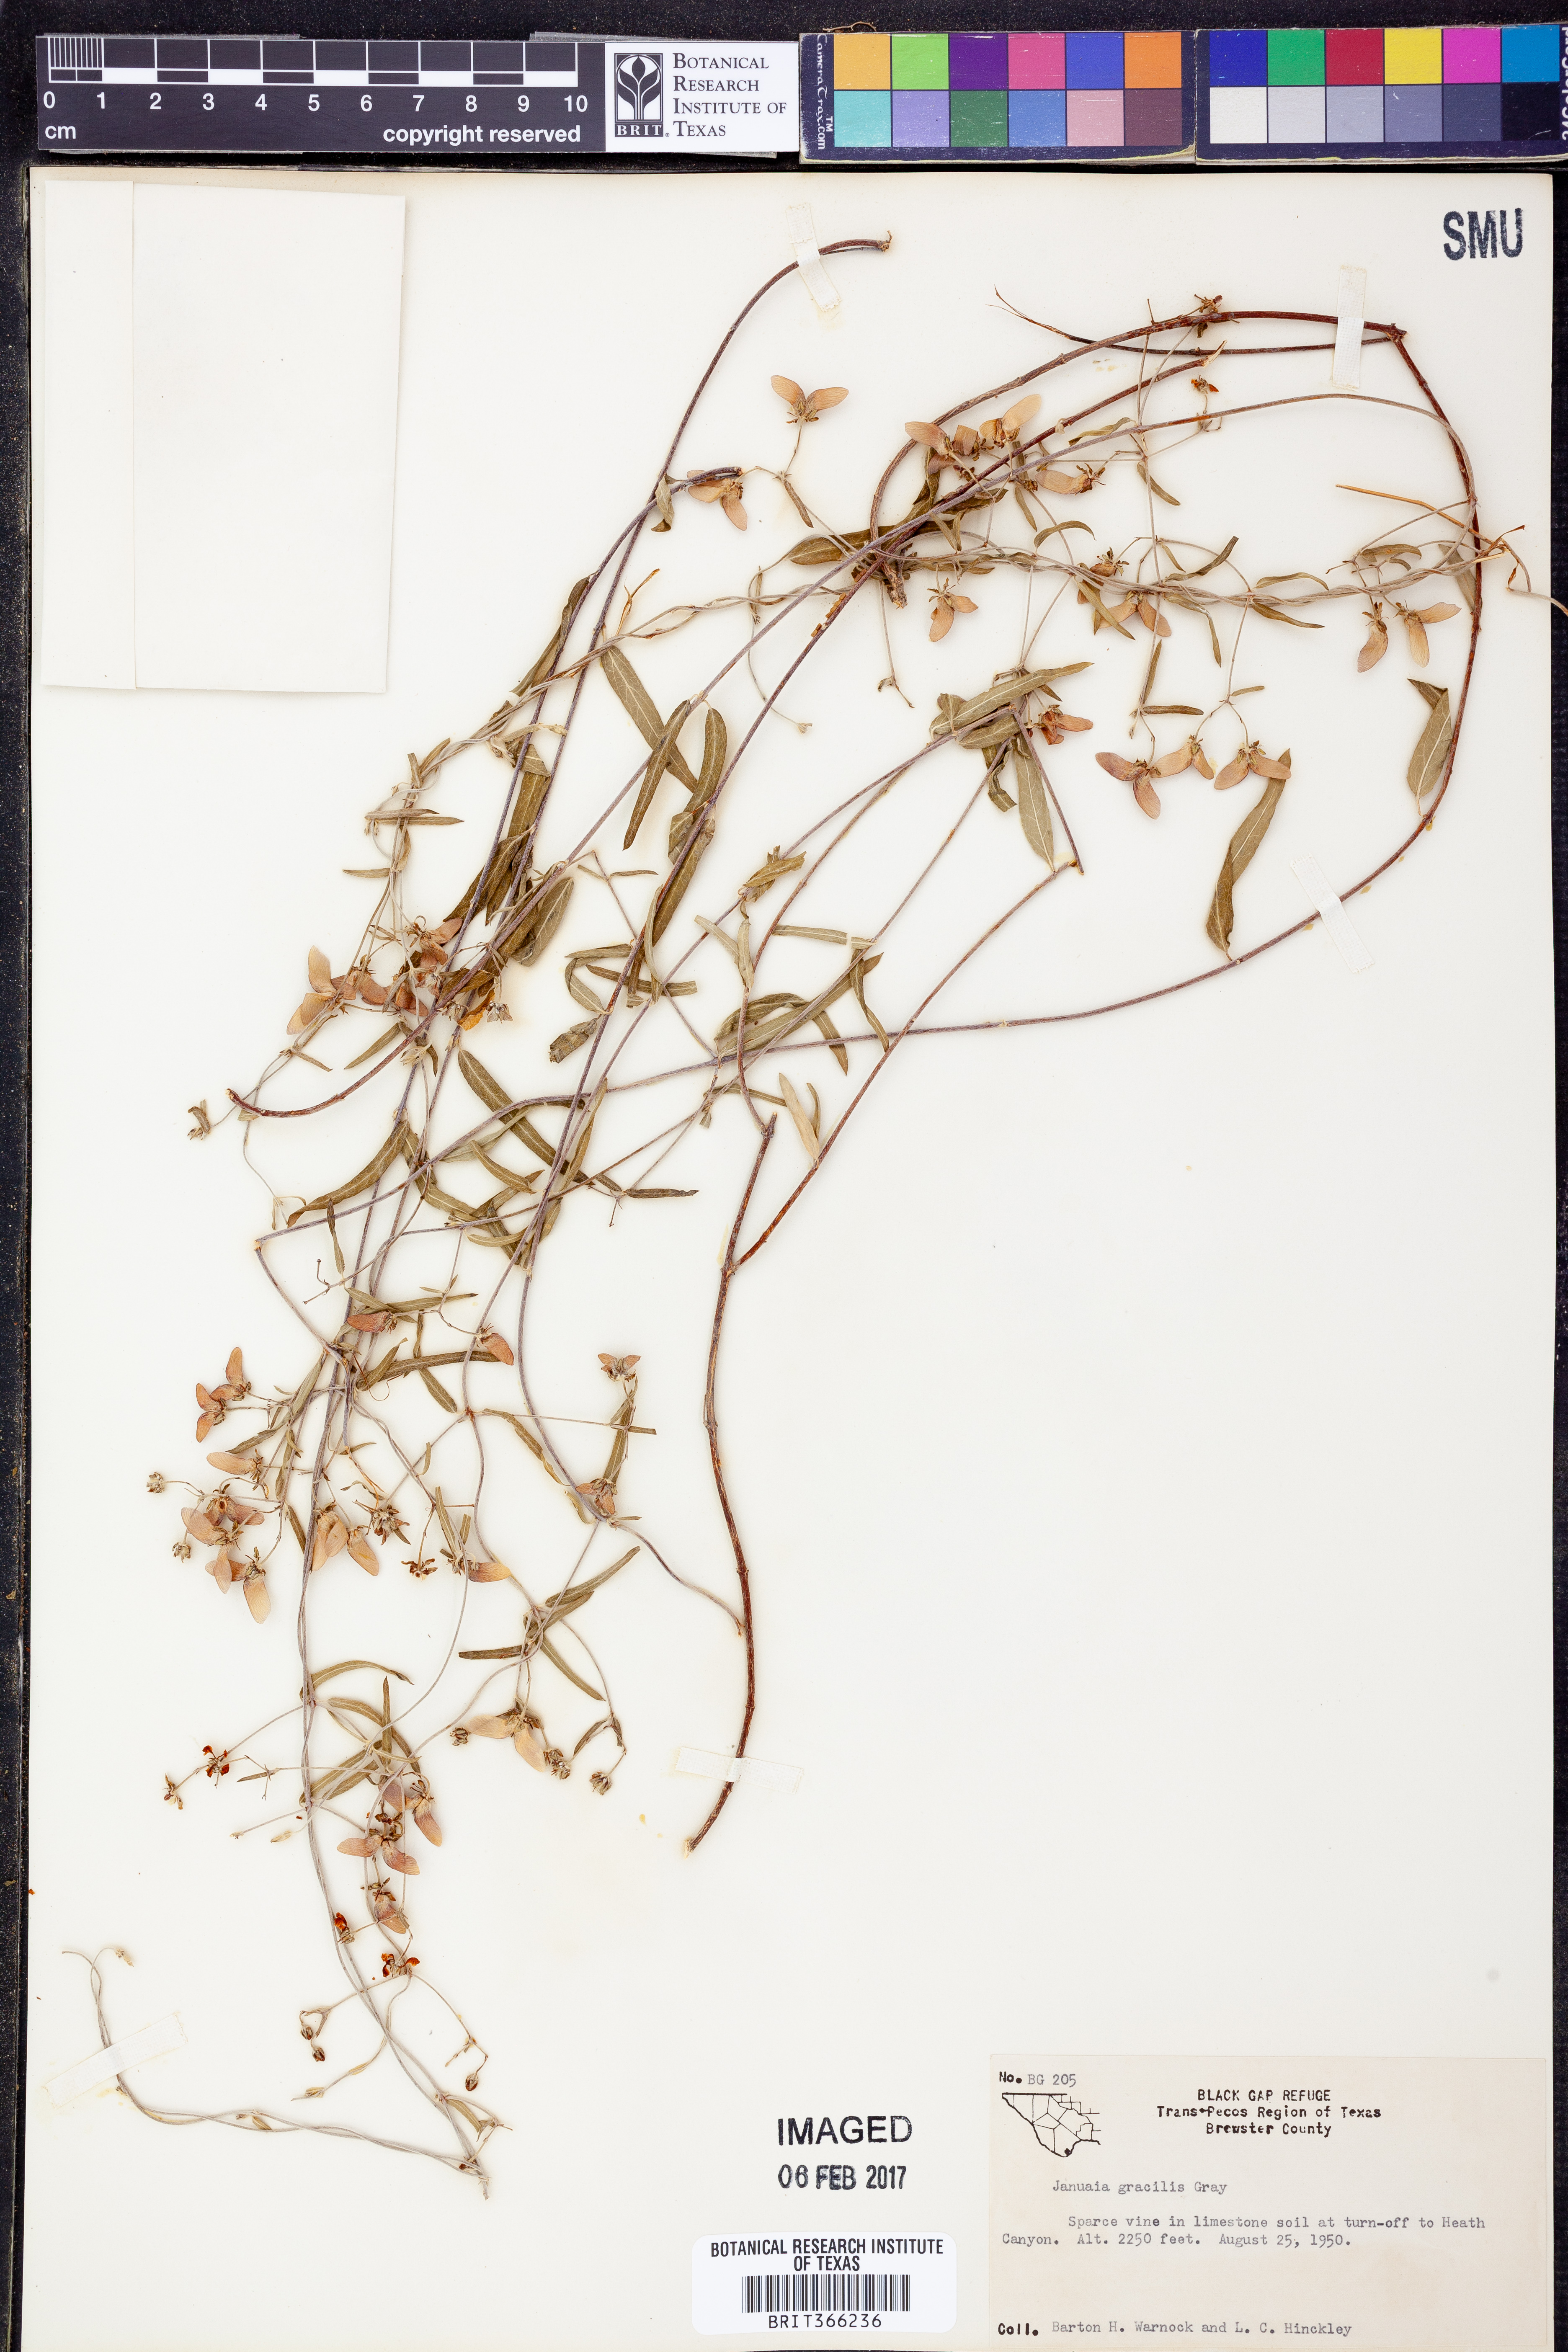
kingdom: Plantae
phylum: Tracheophyta
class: Magnoliopsida
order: Malpighiales
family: Malpighiaceae
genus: Cottsia
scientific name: Cottsia gracilis
